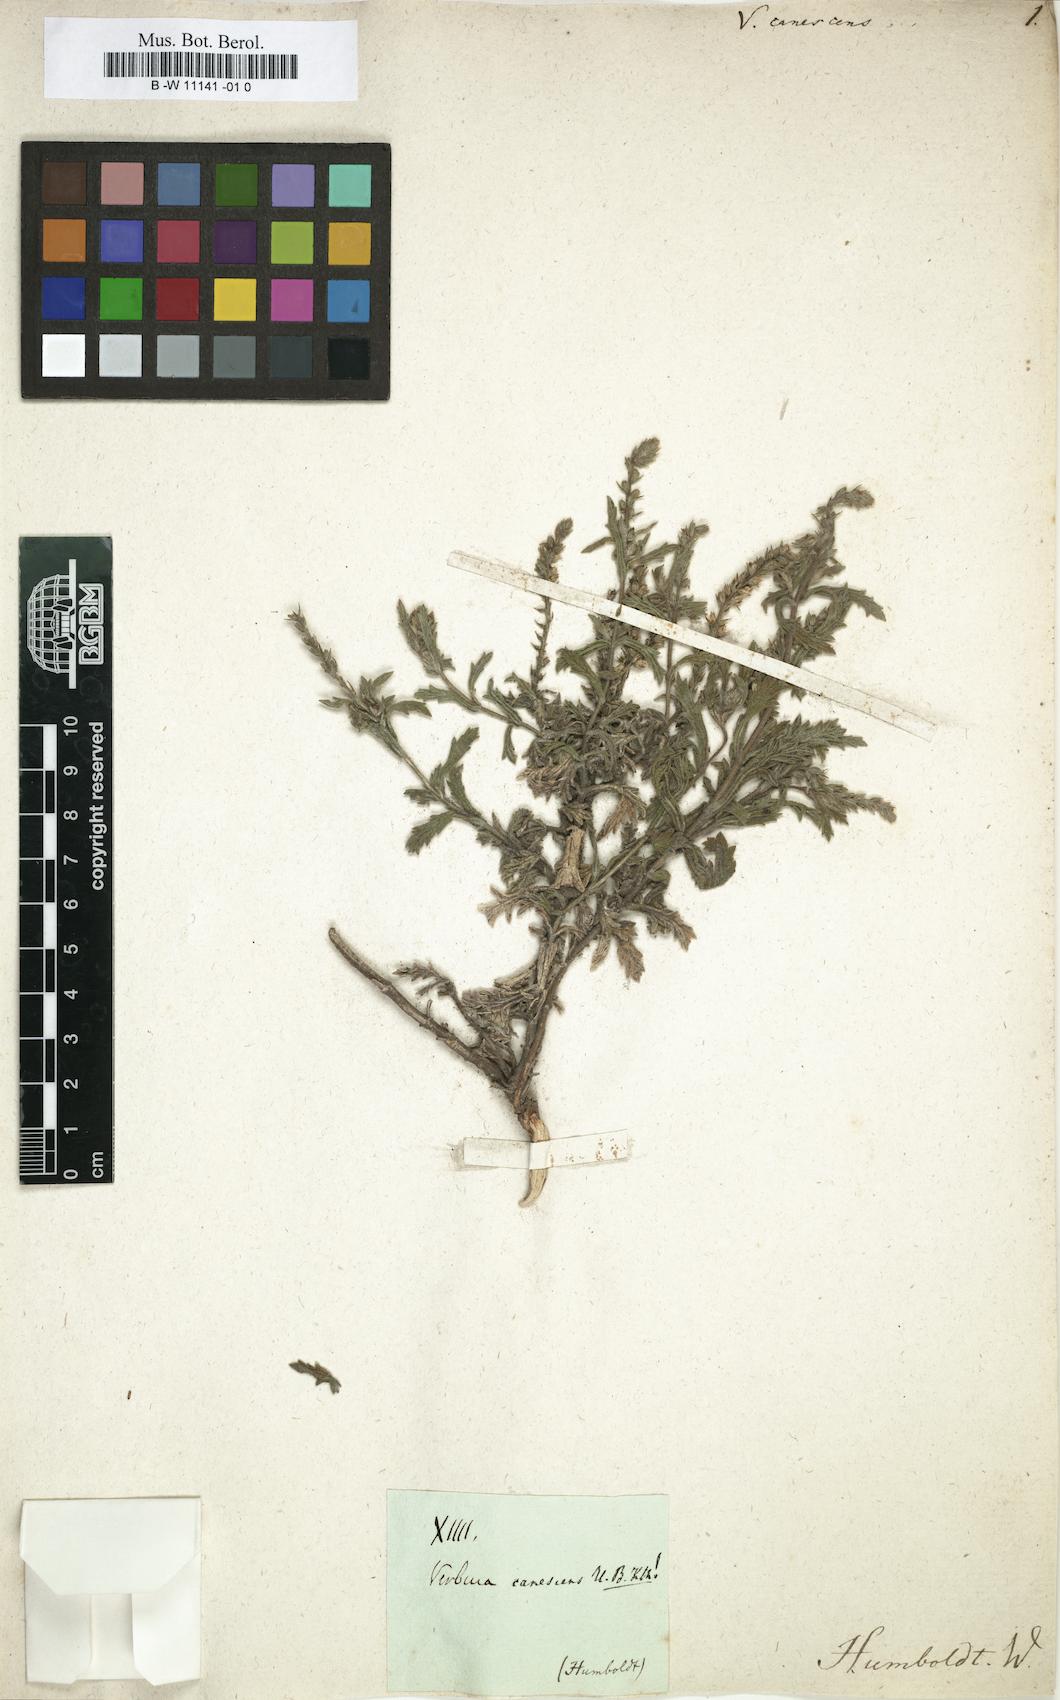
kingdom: Plantae
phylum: Tracheophyta
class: Magnoliopsida
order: Lamiales
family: Verbenaceae
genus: Verbena
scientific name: Verbena canescens
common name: Gray vervain
